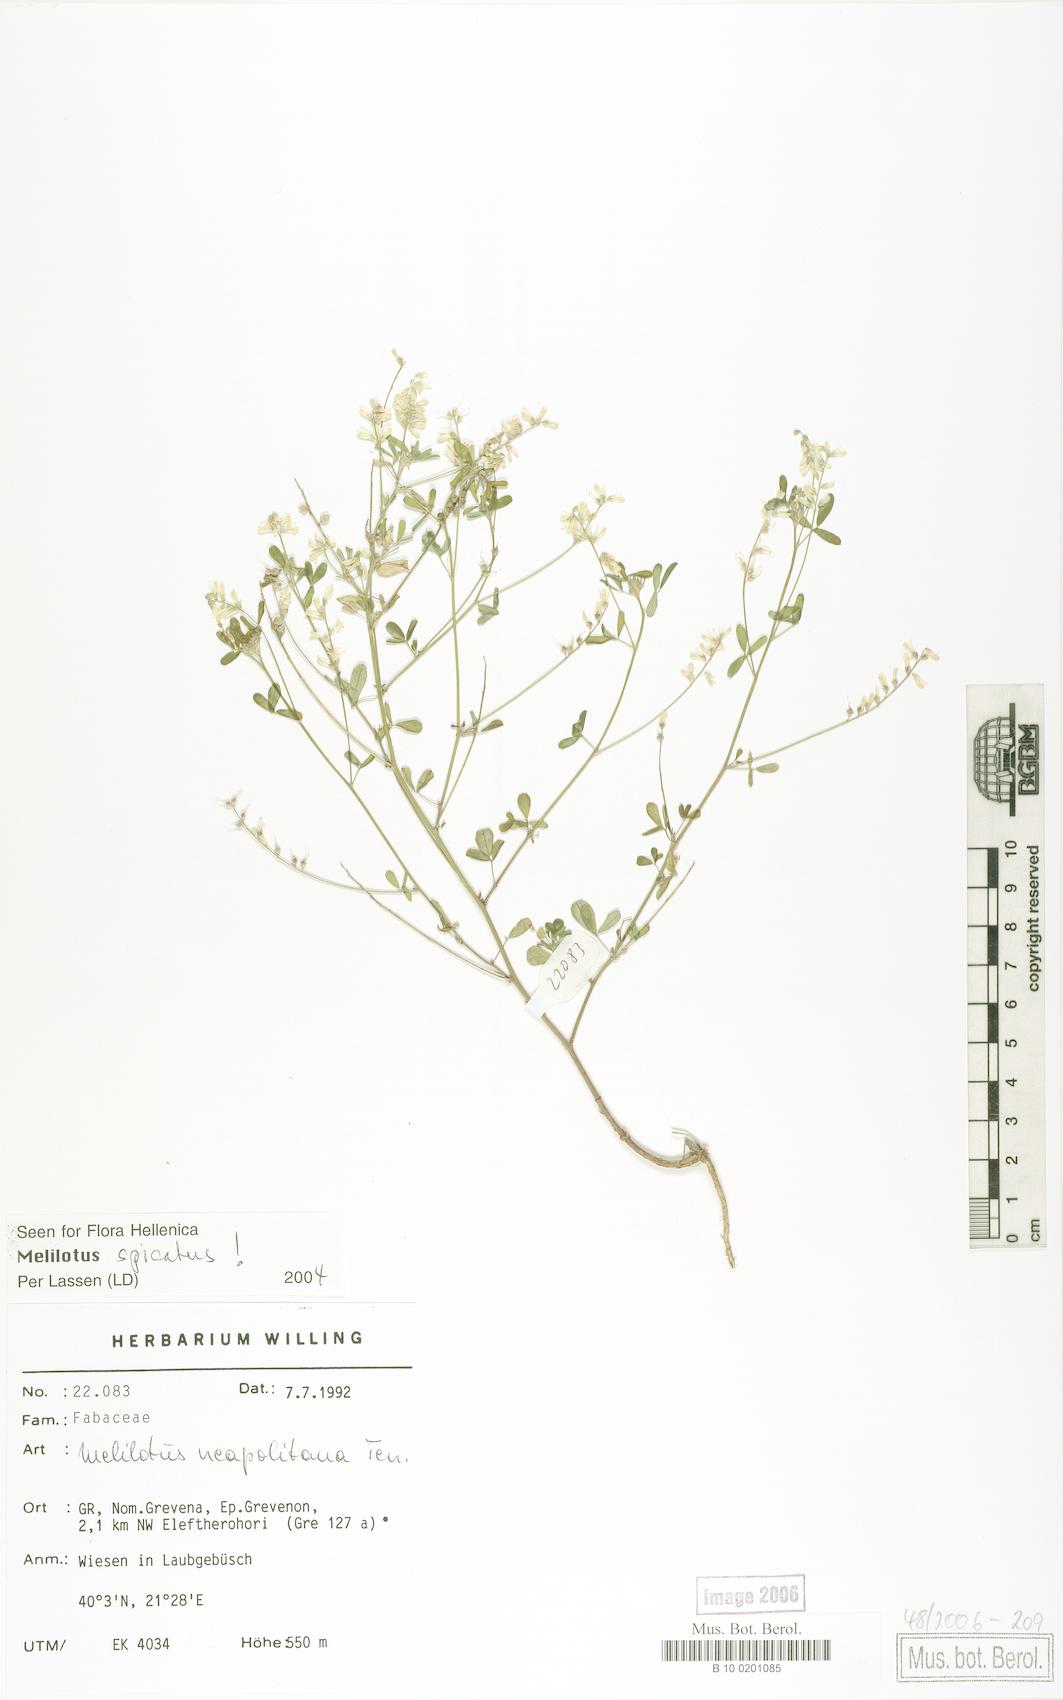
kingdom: Plantae
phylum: Tracheophyta
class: Magnoliopsida
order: Fabales
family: Fabaceae
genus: Melilotus
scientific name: Melilotus neapolitanus
